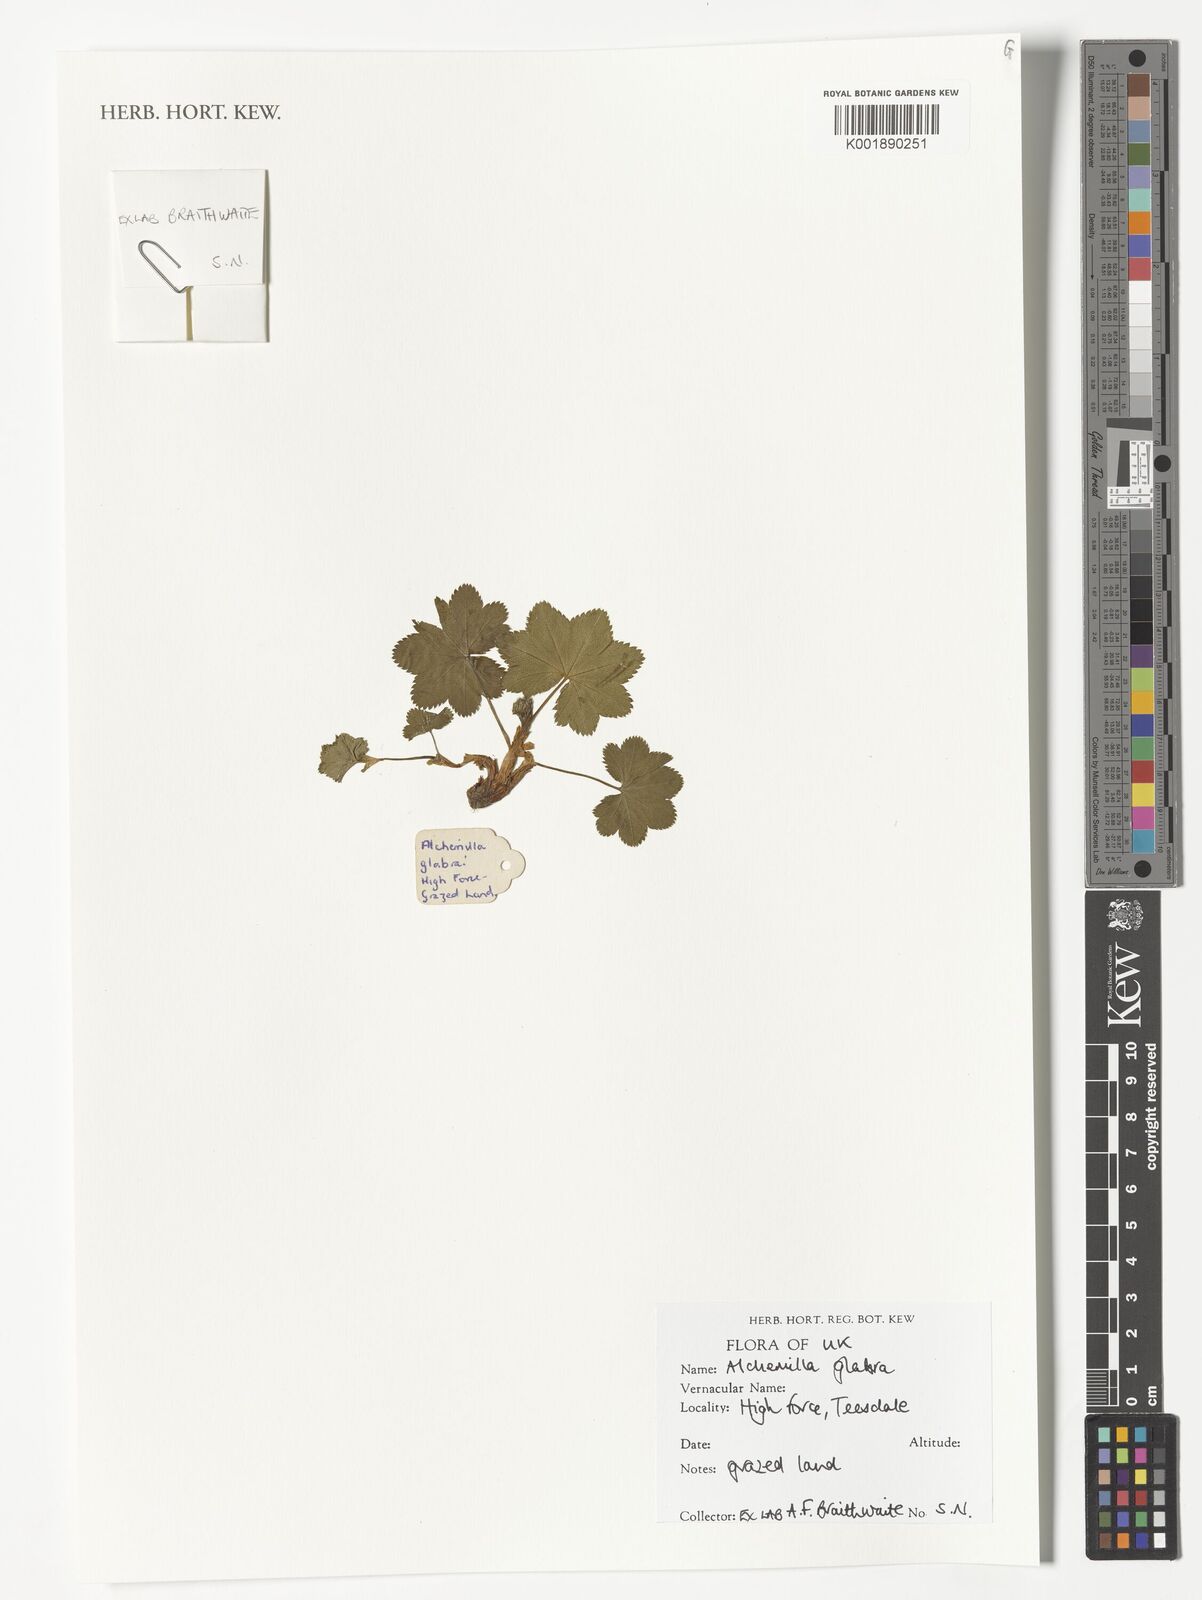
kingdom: Plantae
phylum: Tracheophyta
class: Magnoliopsida
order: Rosales
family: Rosaceae
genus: Alchemilla
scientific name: Alchemilla glabra
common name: Smooth lady's-mantle
